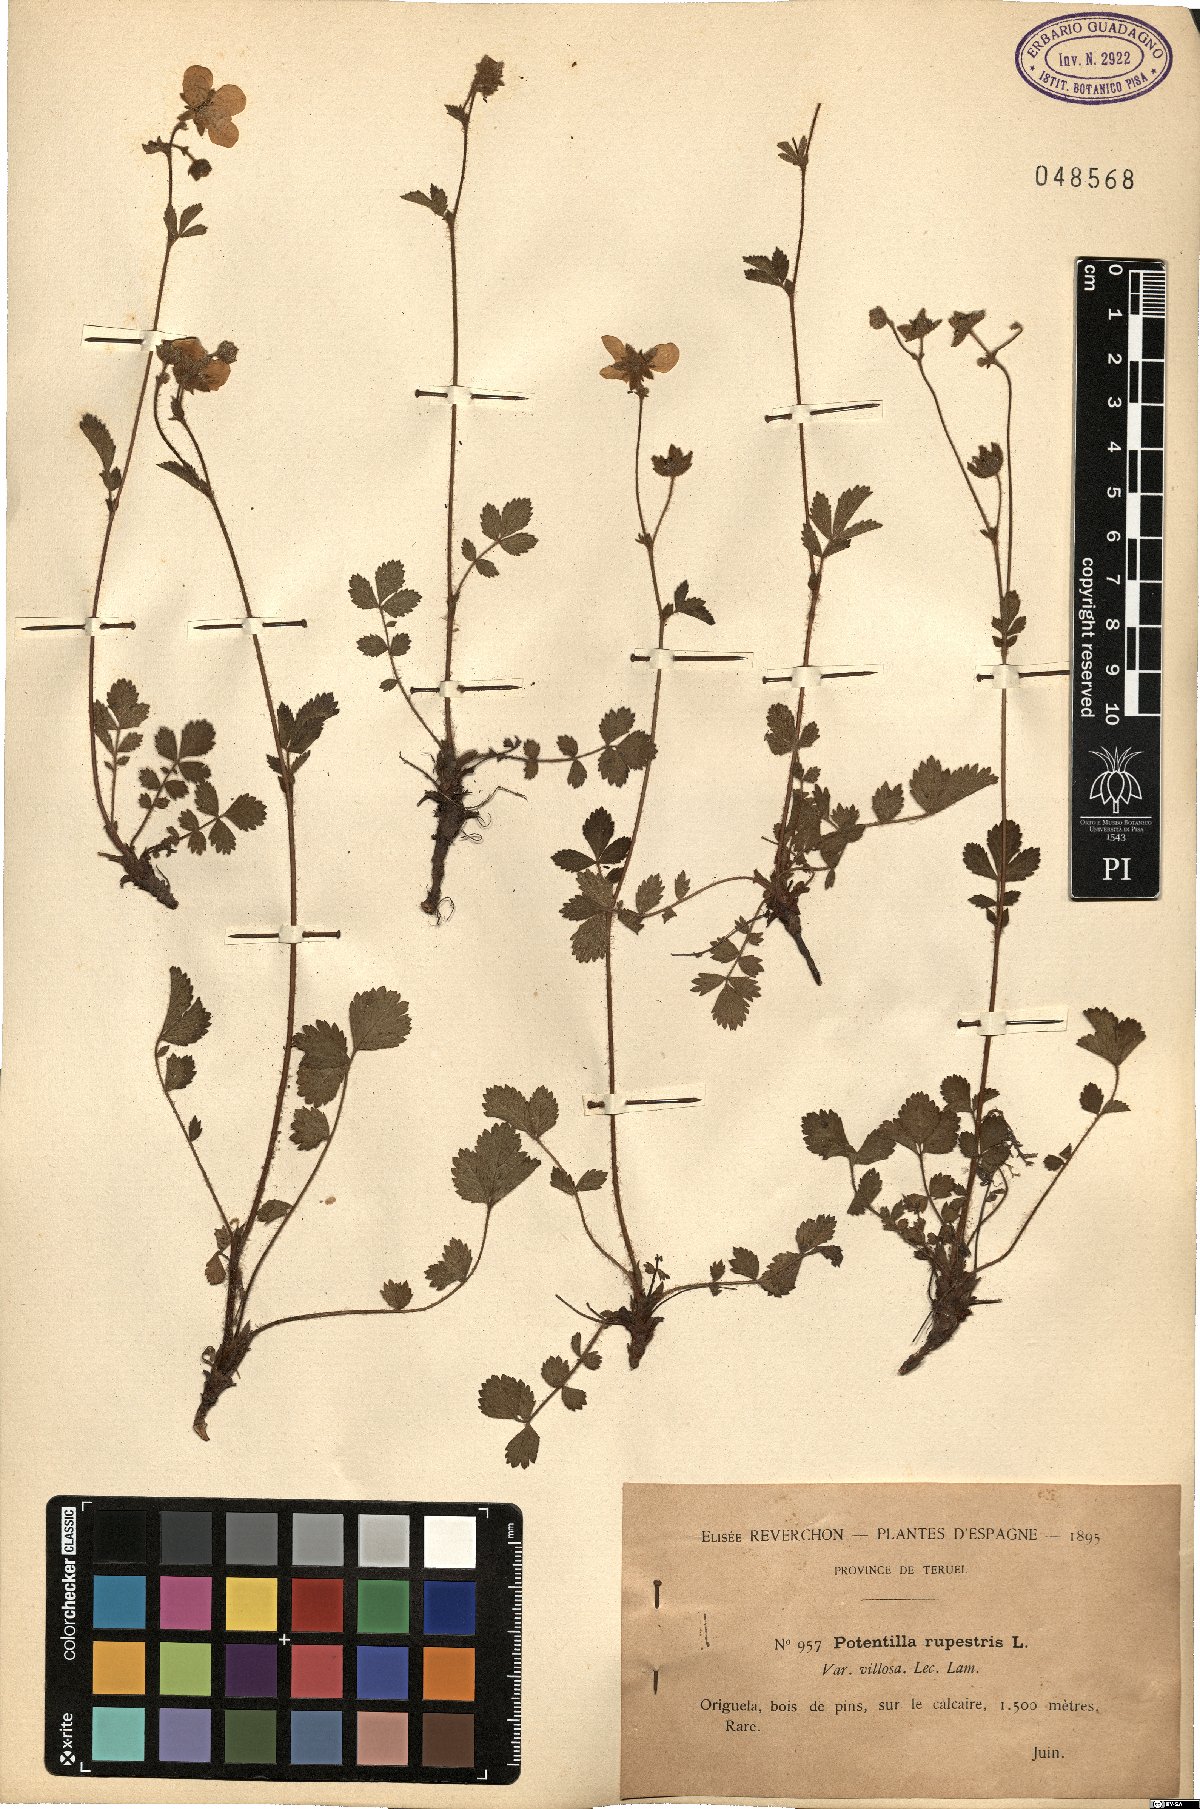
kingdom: Plantae
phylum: Tracheophyta
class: Magnoliopsida
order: Rosales
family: Rosaceae
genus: Drymocallis
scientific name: Drymocallis rupestris
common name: Rock cinquefoil
